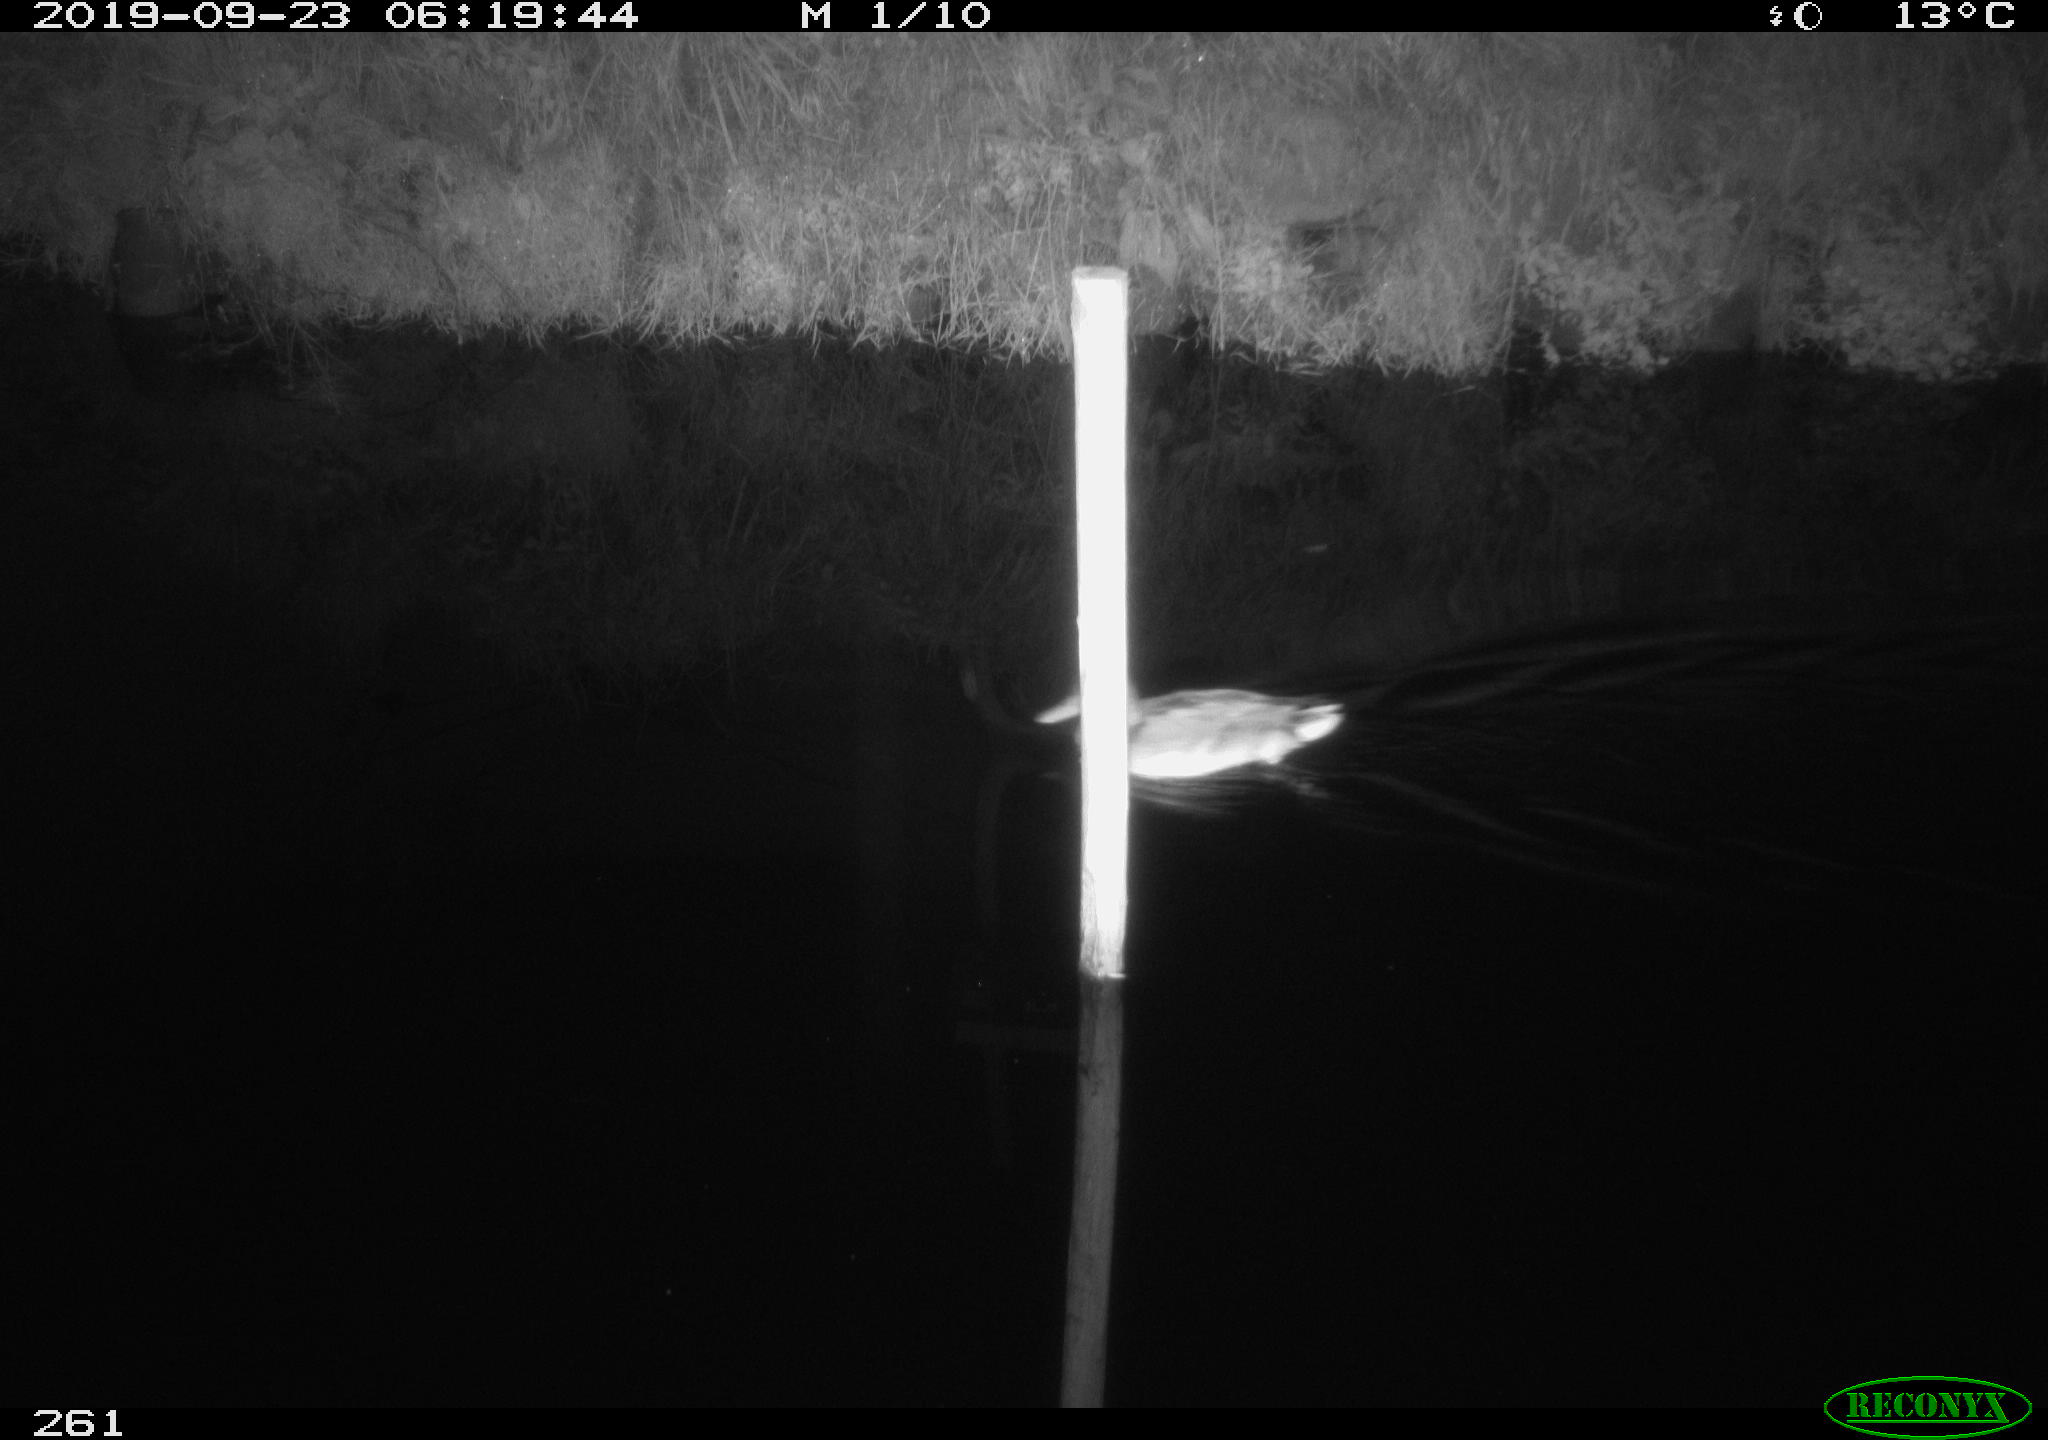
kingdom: Animalia
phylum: Chordata
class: Aves
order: Anseriformes
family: Anatidae
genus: Anas
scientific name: Anas platyrhynchos
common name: Mallard
